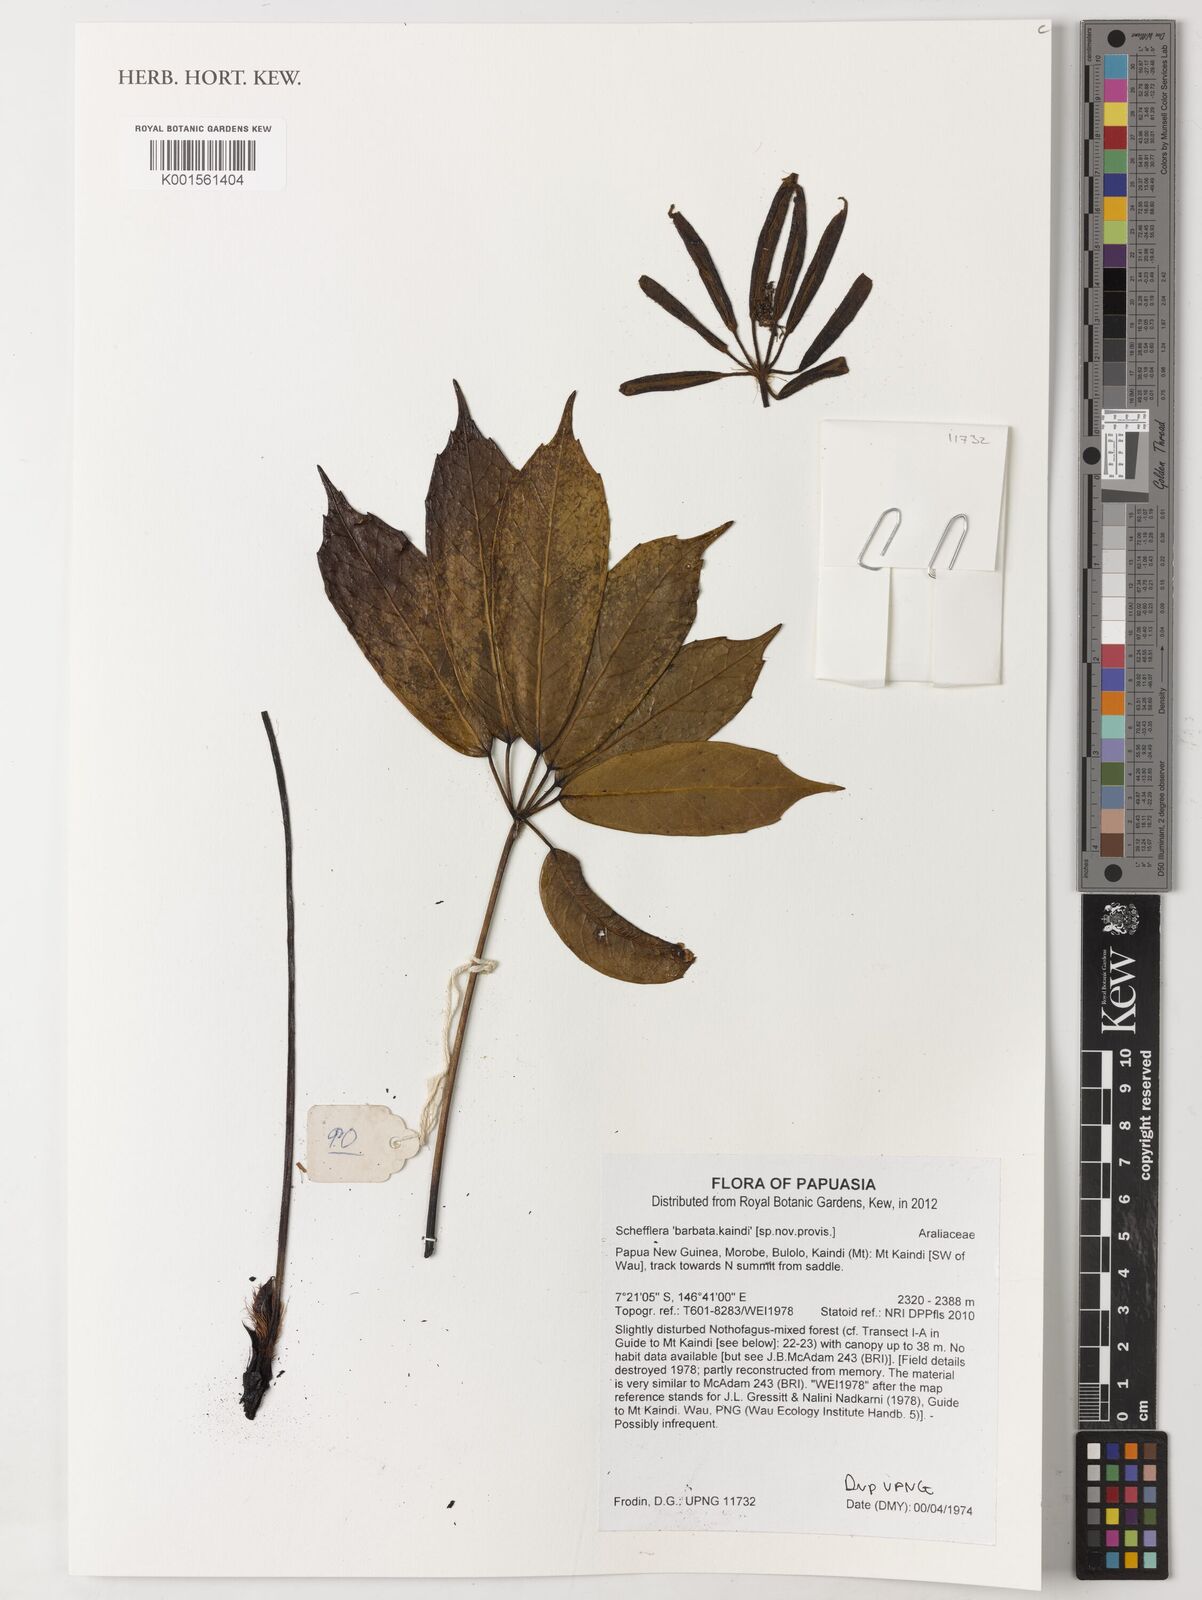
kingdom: Plantae
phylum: Tracheophyta
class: Magnoliopsida
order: Apiales
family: Araliaceae
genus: Schefflera
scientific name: Schefflera
